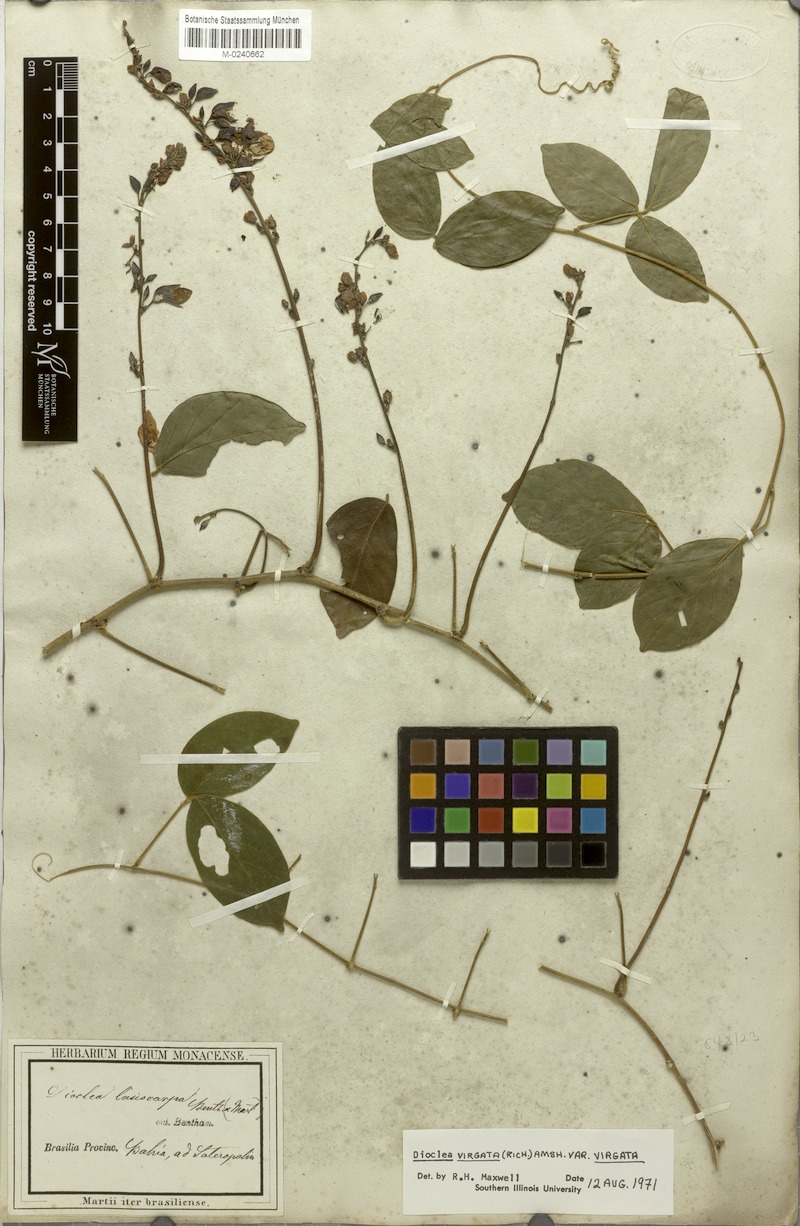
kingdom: Plantae
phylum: Tracheophyta
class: Magnoliopsida
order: Fabales
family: Fabaceae
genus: Dioclea
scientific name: Dioclea virgata
